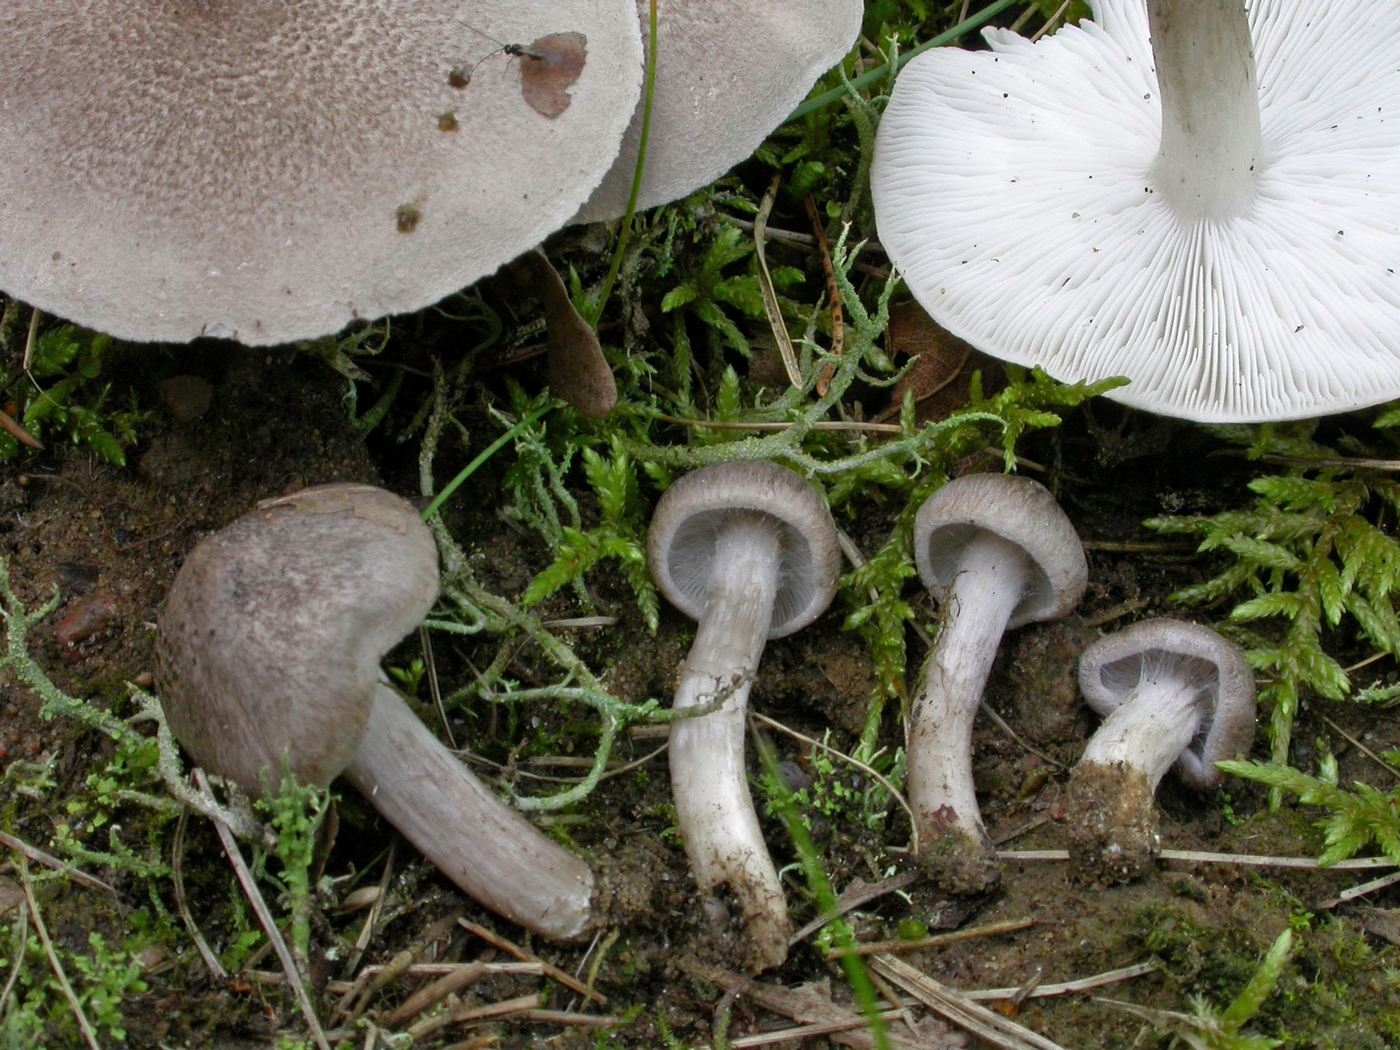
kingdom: Fungi
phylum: Basidiomycota
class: Agaricomycetes
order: Agaricales
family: Tricholomataceae
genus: Tricholoma
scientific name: Tricholoma argyraceum
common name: slør-ridderhat
